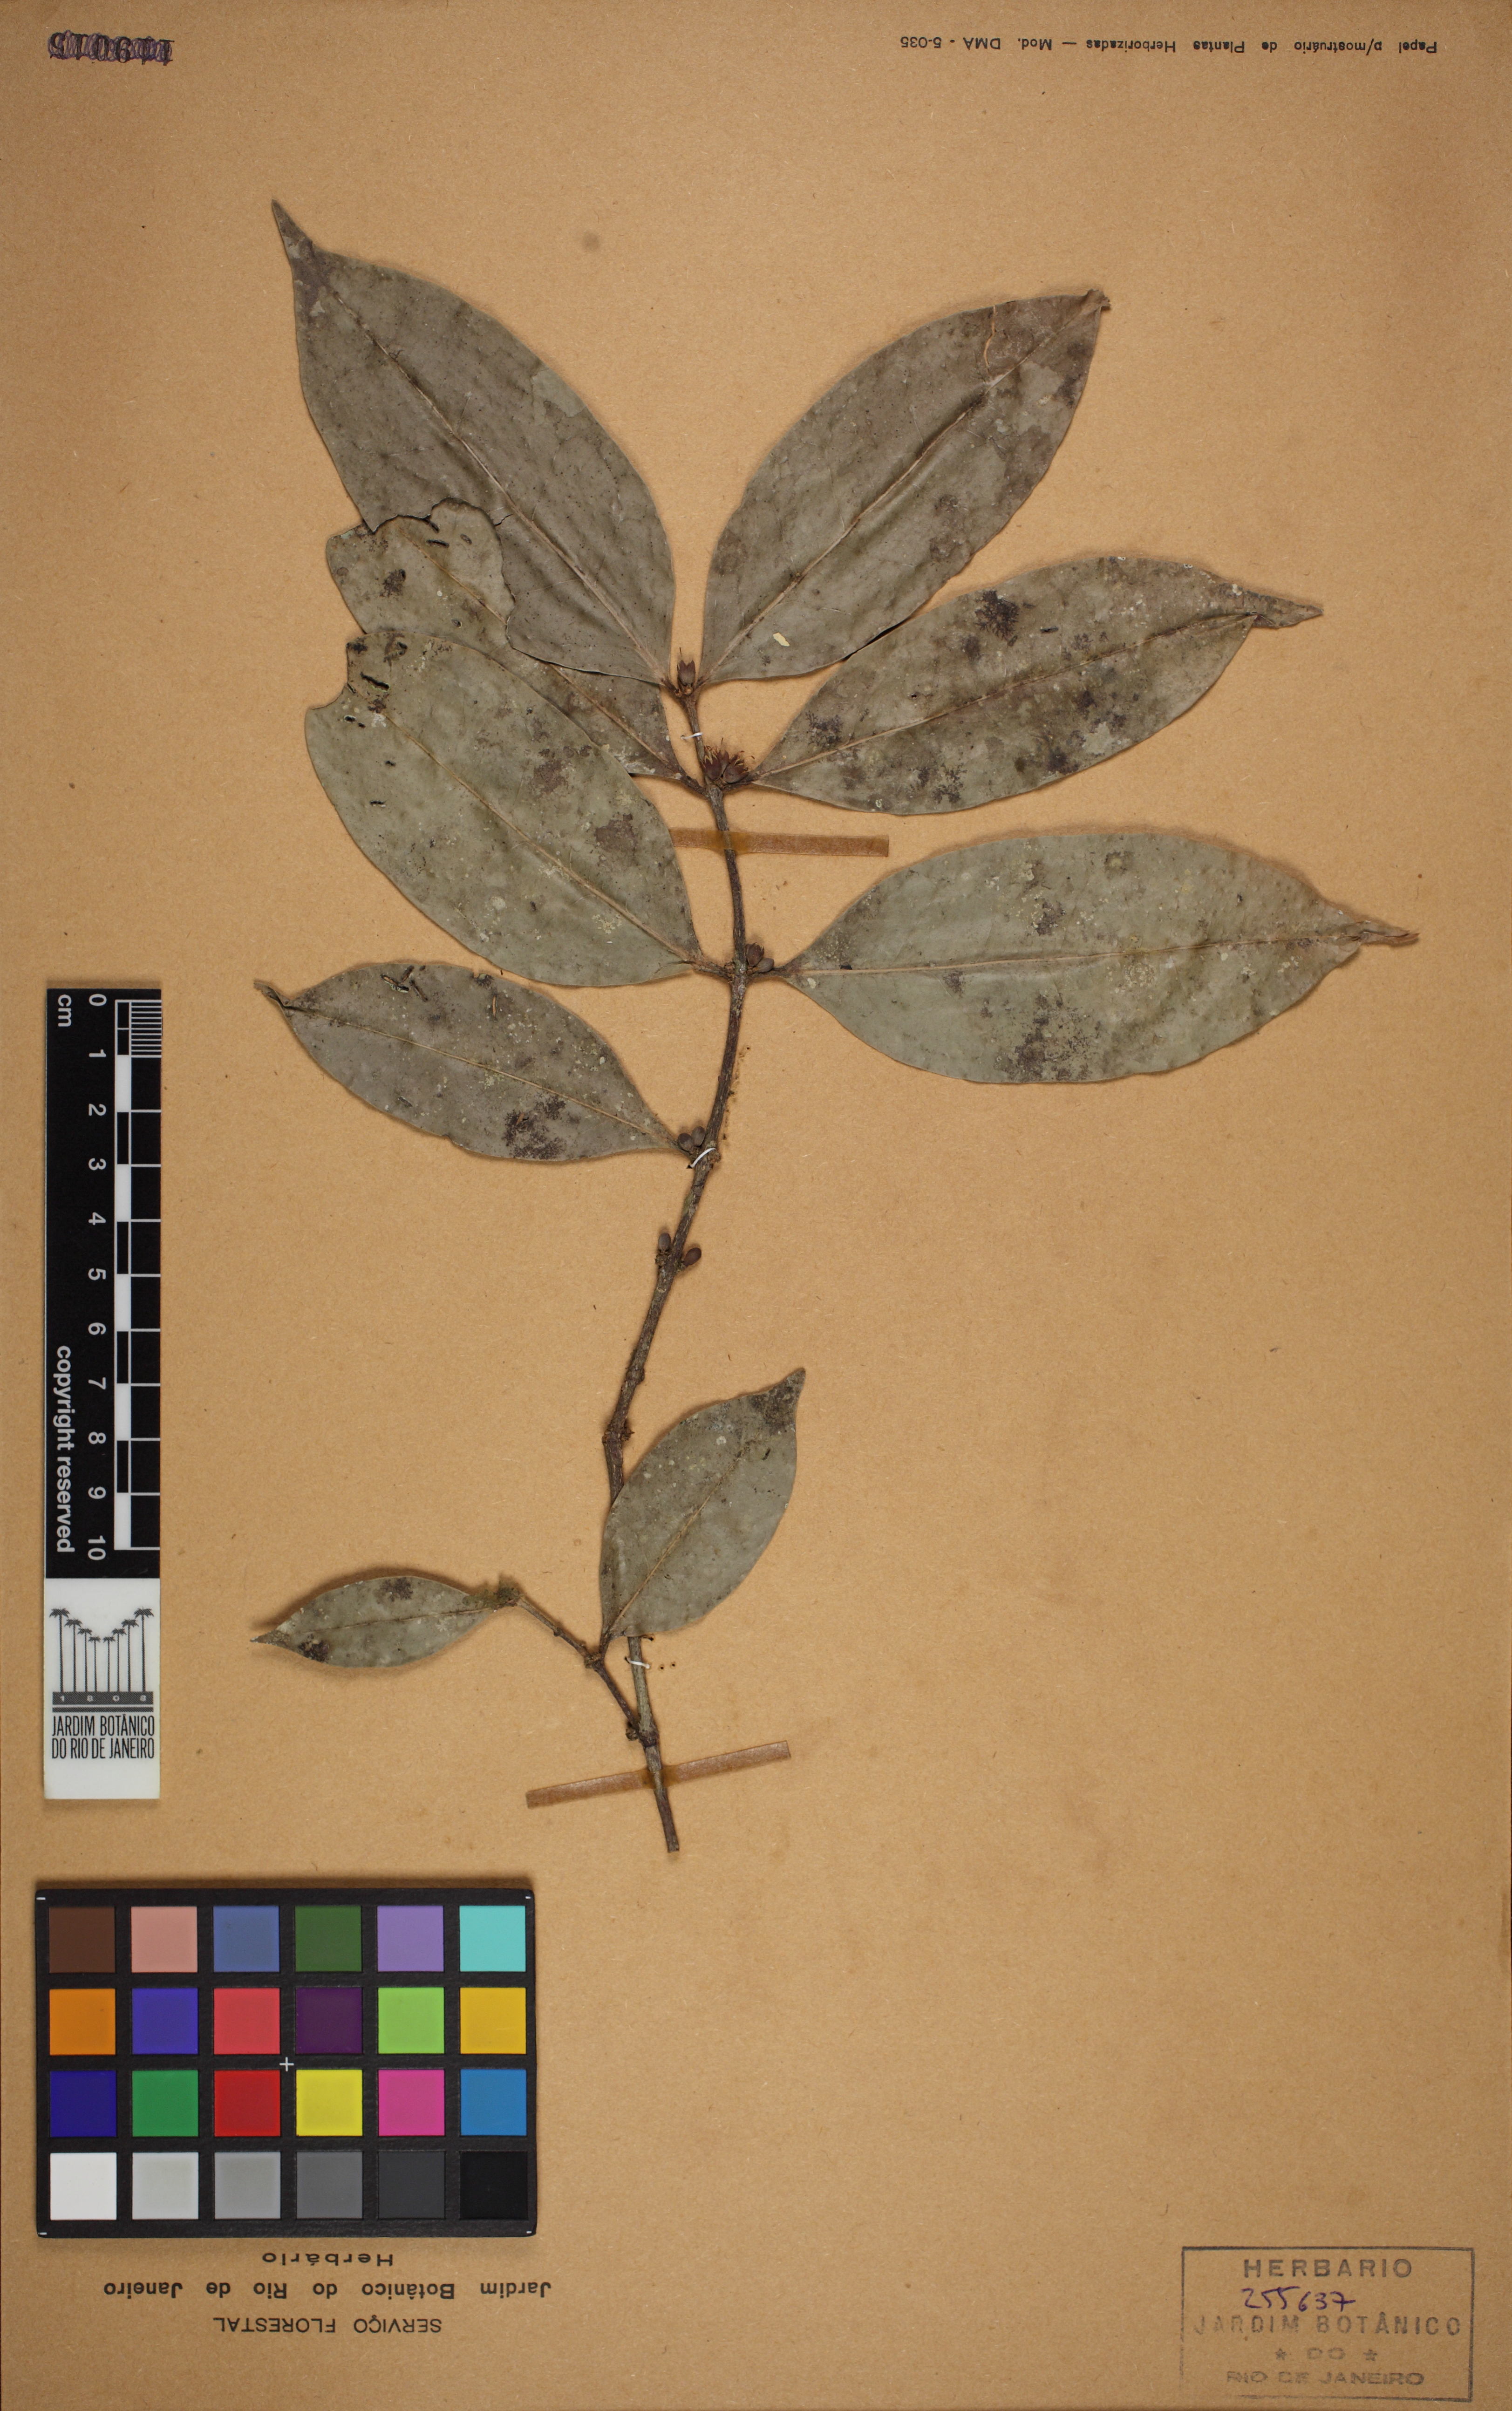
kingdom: Plantae
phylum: Tracheophyta
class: Magnoliopsida
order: Malpighiales
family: Rhizophoraceae
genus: Cassipourea
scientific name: Cassipourea guianensis
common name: Bastard waterwood
